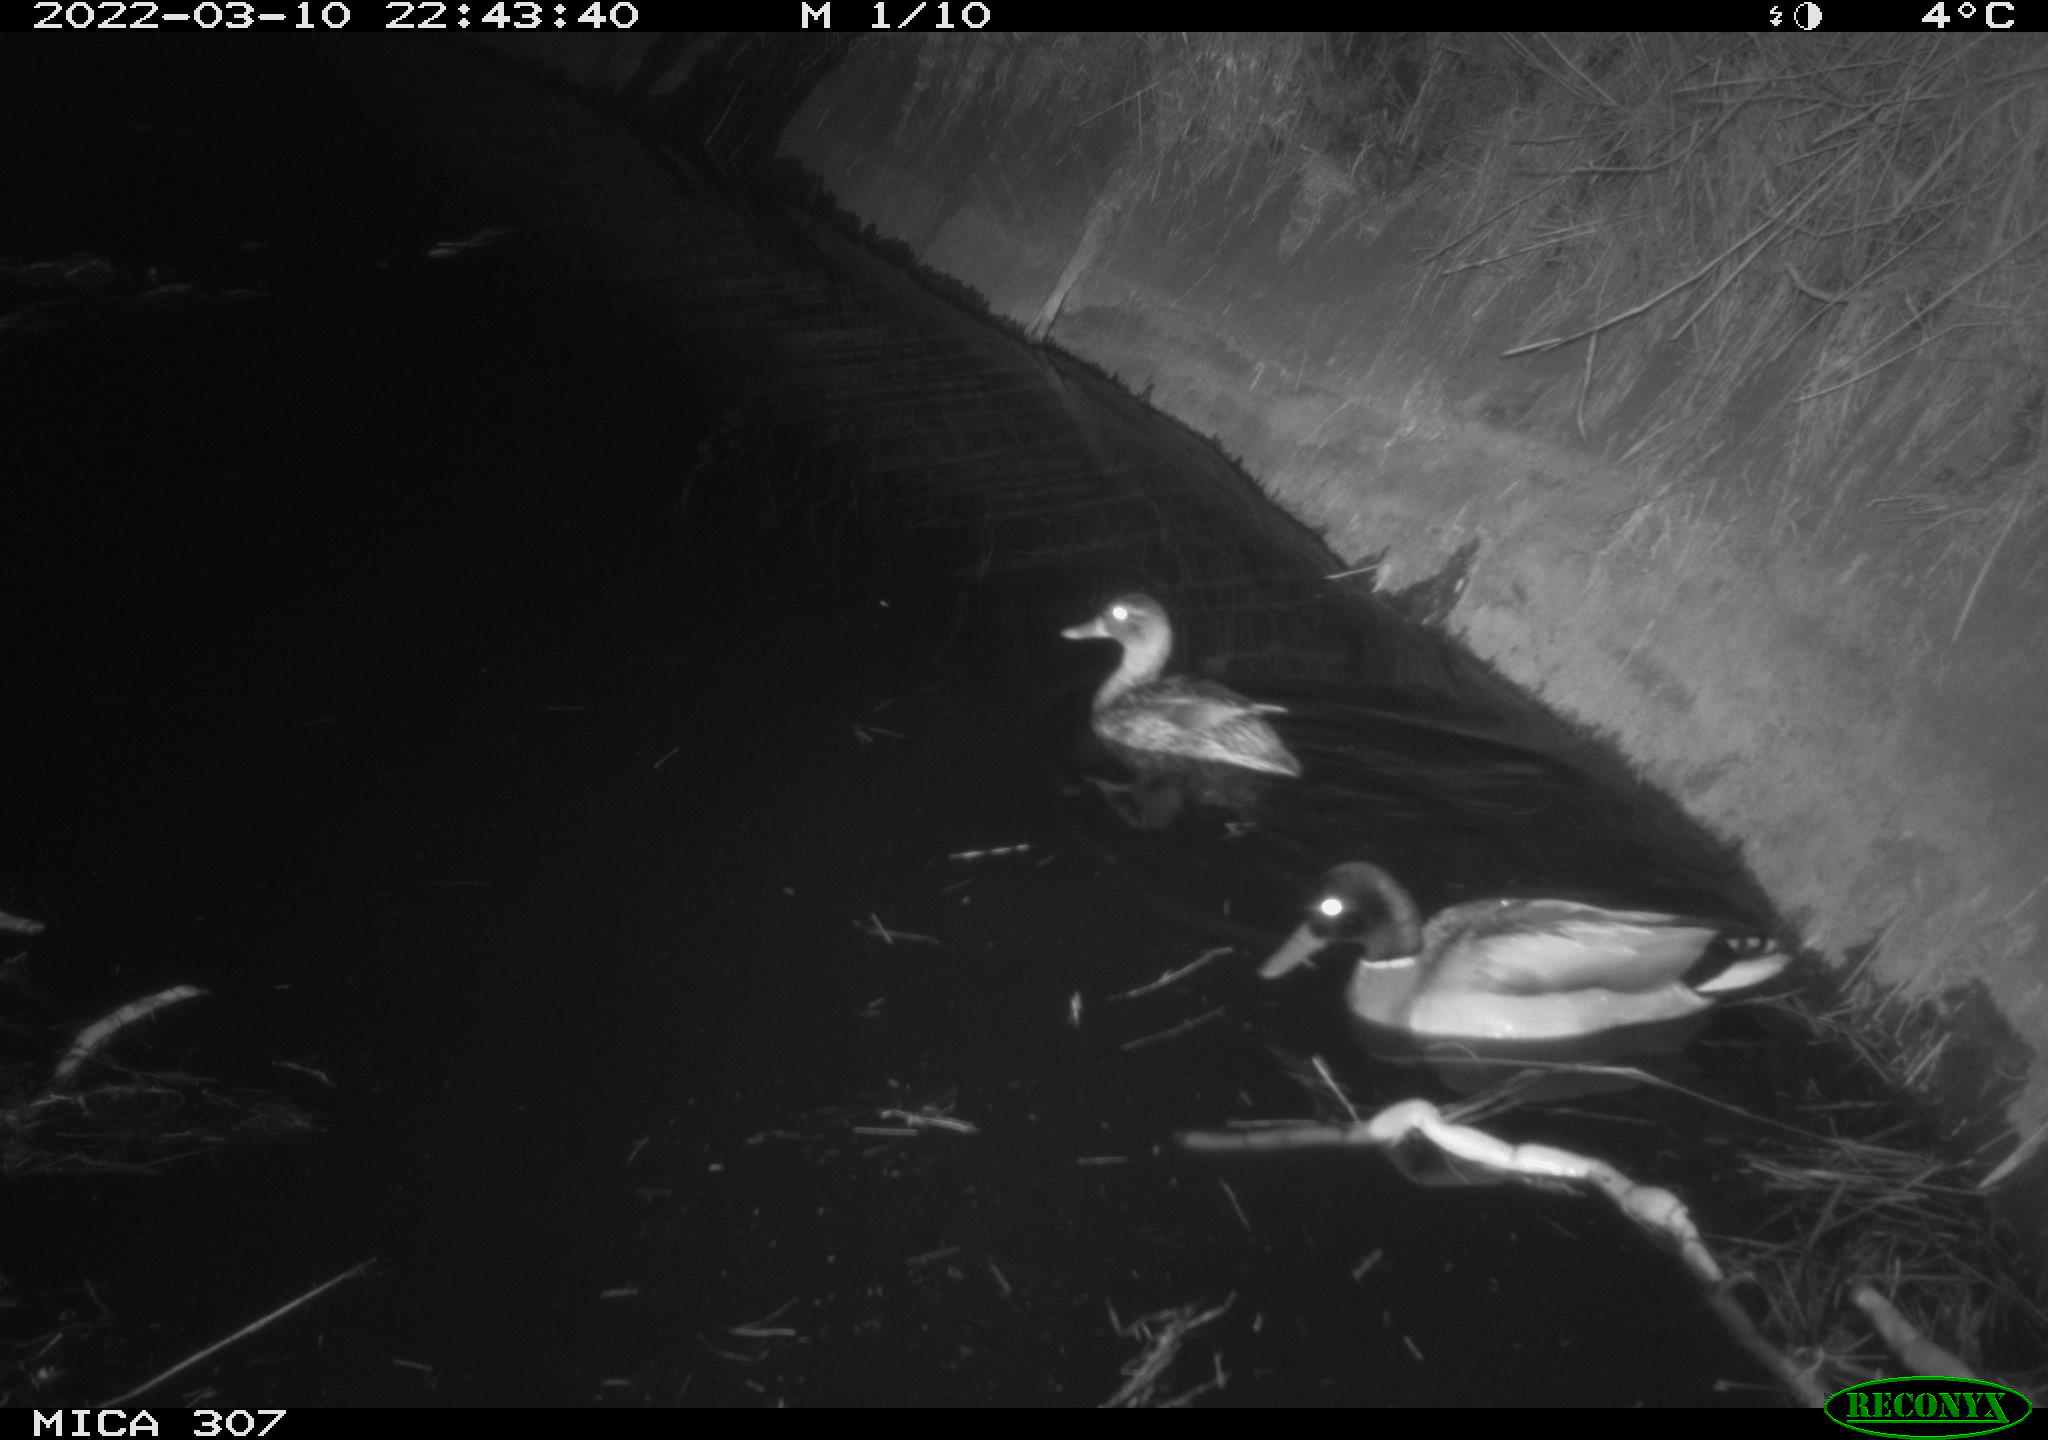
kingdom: Animalia
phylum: Chordata
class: Aves
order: Anseriformes
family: Anatidae
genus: Anas
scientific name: Anas platyrhynchos
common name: Mallard
